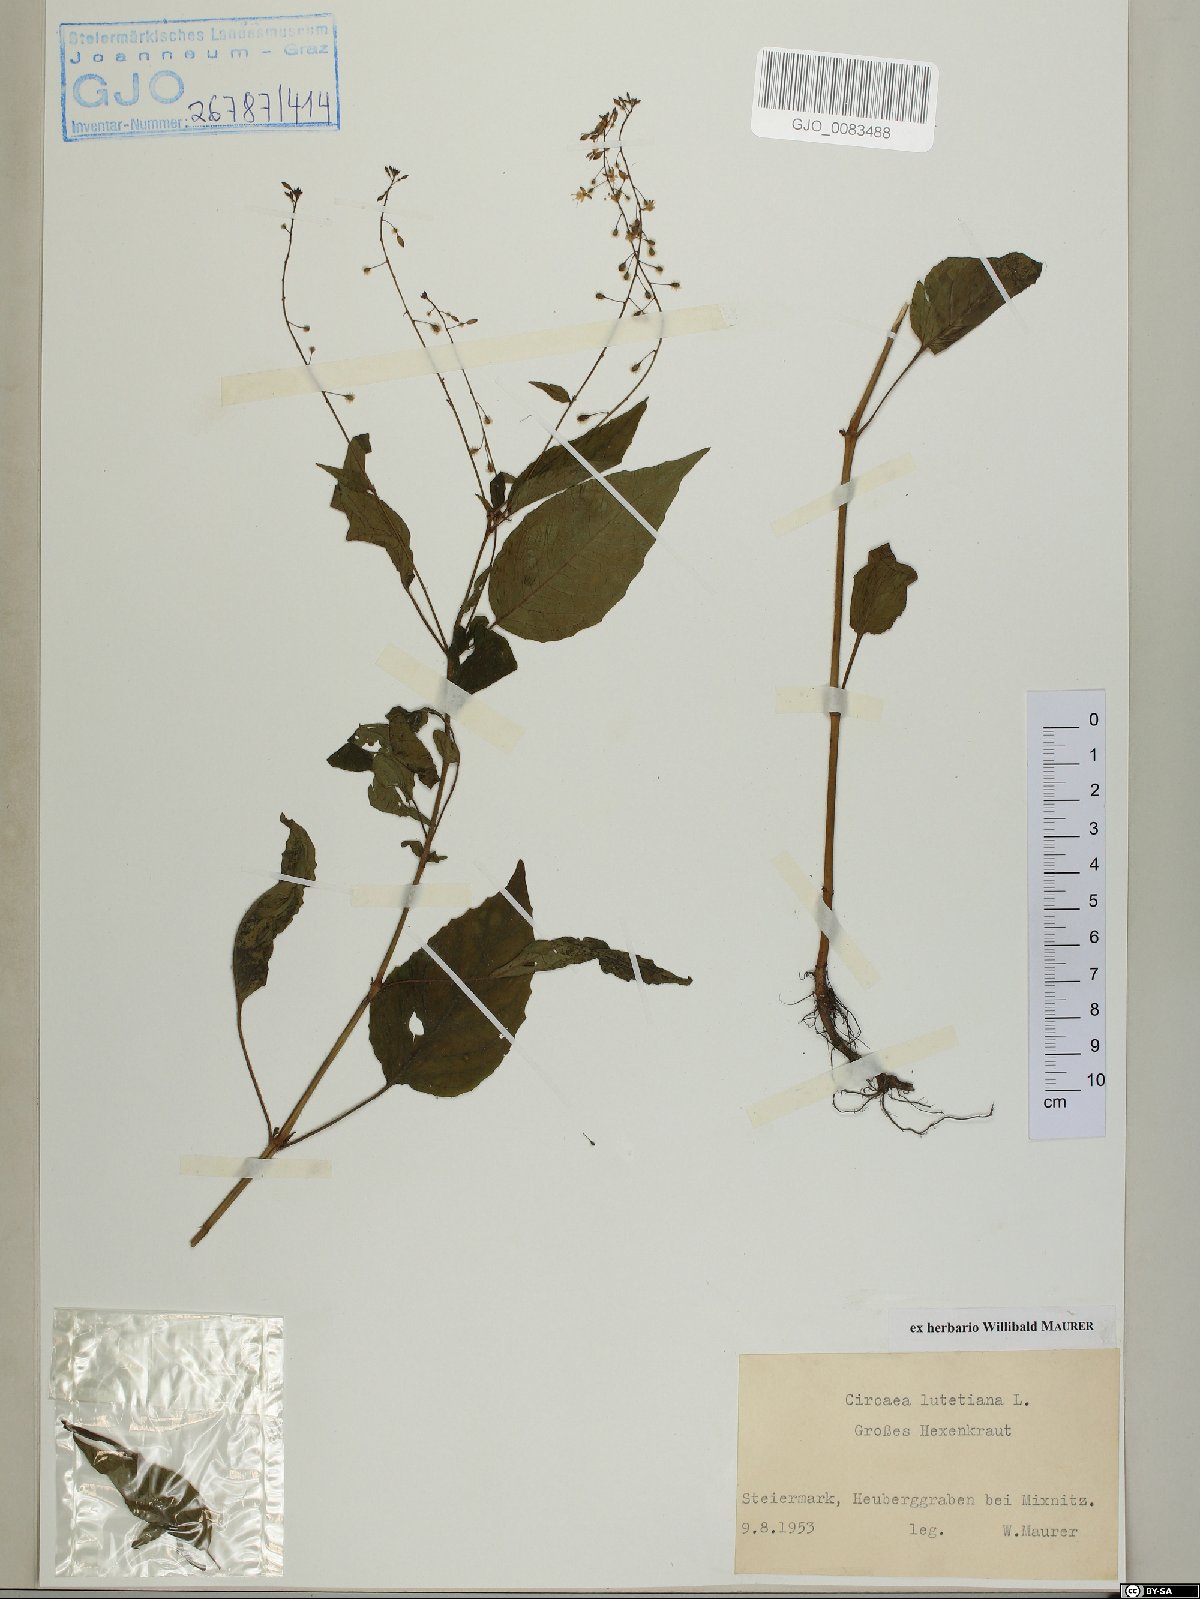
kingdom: Plantae
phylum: Tracheophyta
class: Magnoliopsida
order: Myrtales
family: Onagraceae
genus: Circaea
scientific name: Circaea lutetiana
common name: Enchanter's-nightshade
